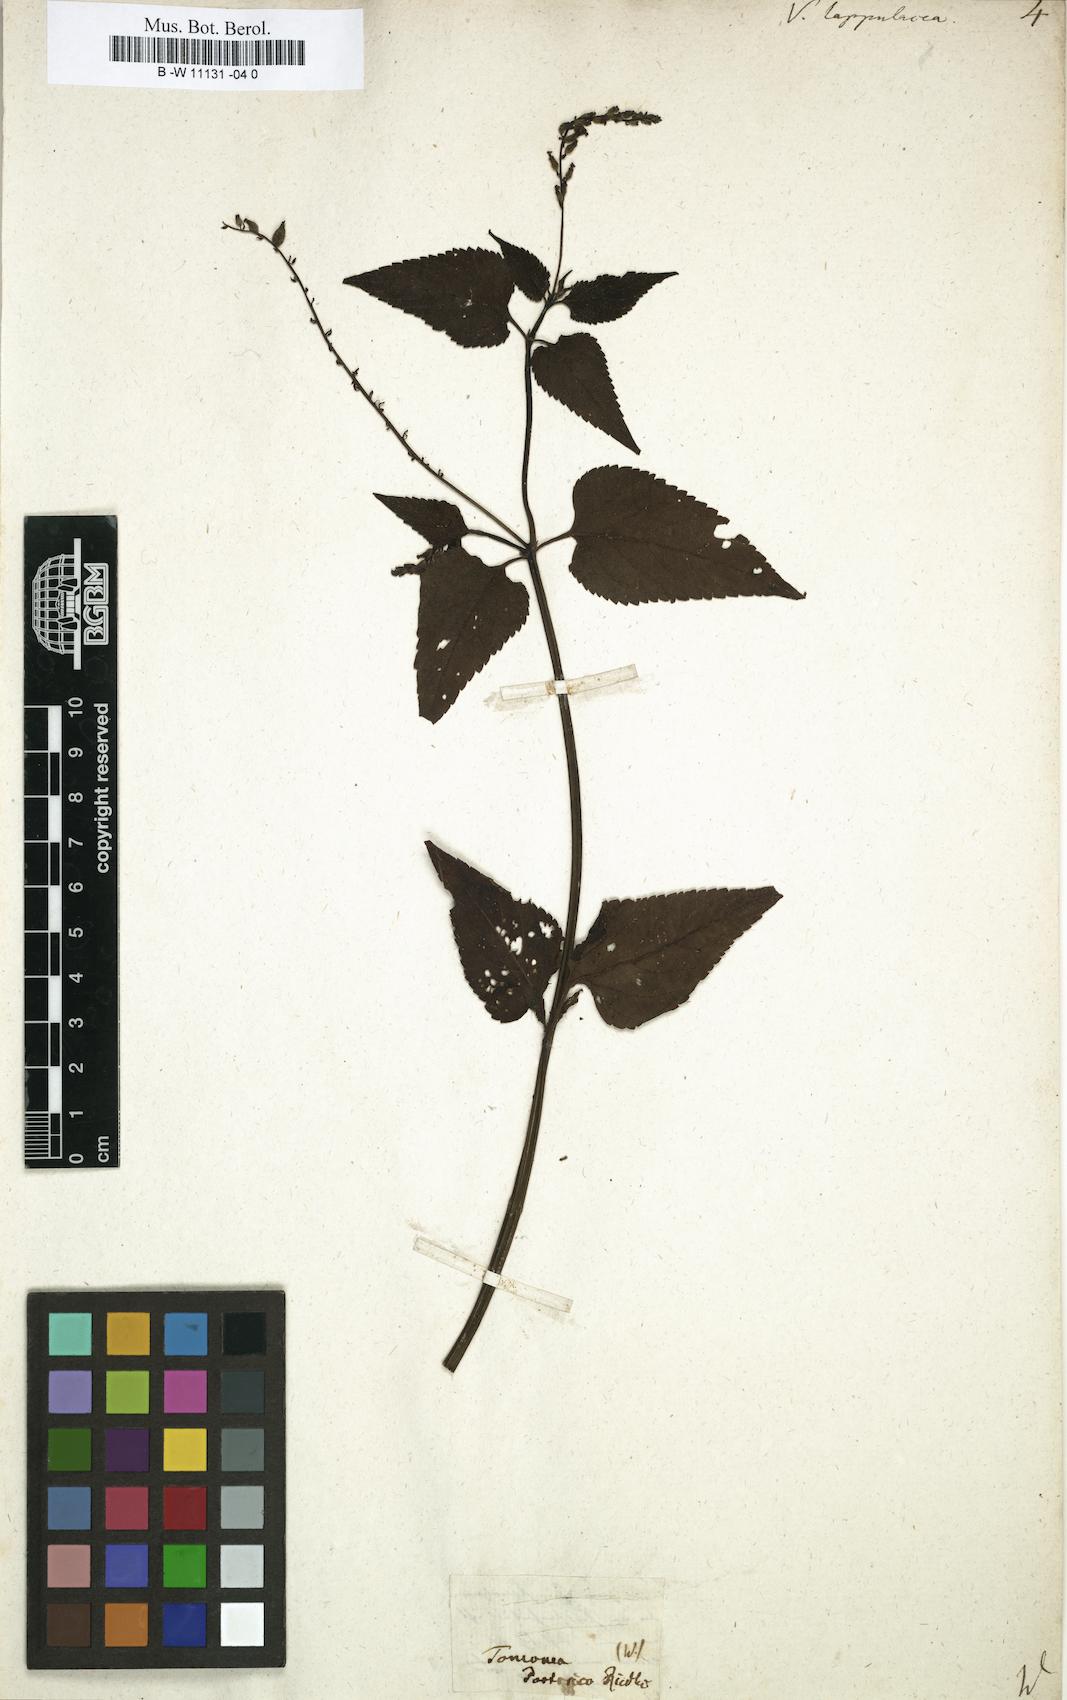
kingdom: Plantae
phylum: Tracheophyta
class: Magnoliopsida
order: Lamiales
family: Verbenaceae
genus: Priva
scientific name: Priva lappulacea
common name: Fasten-'pon-coat
